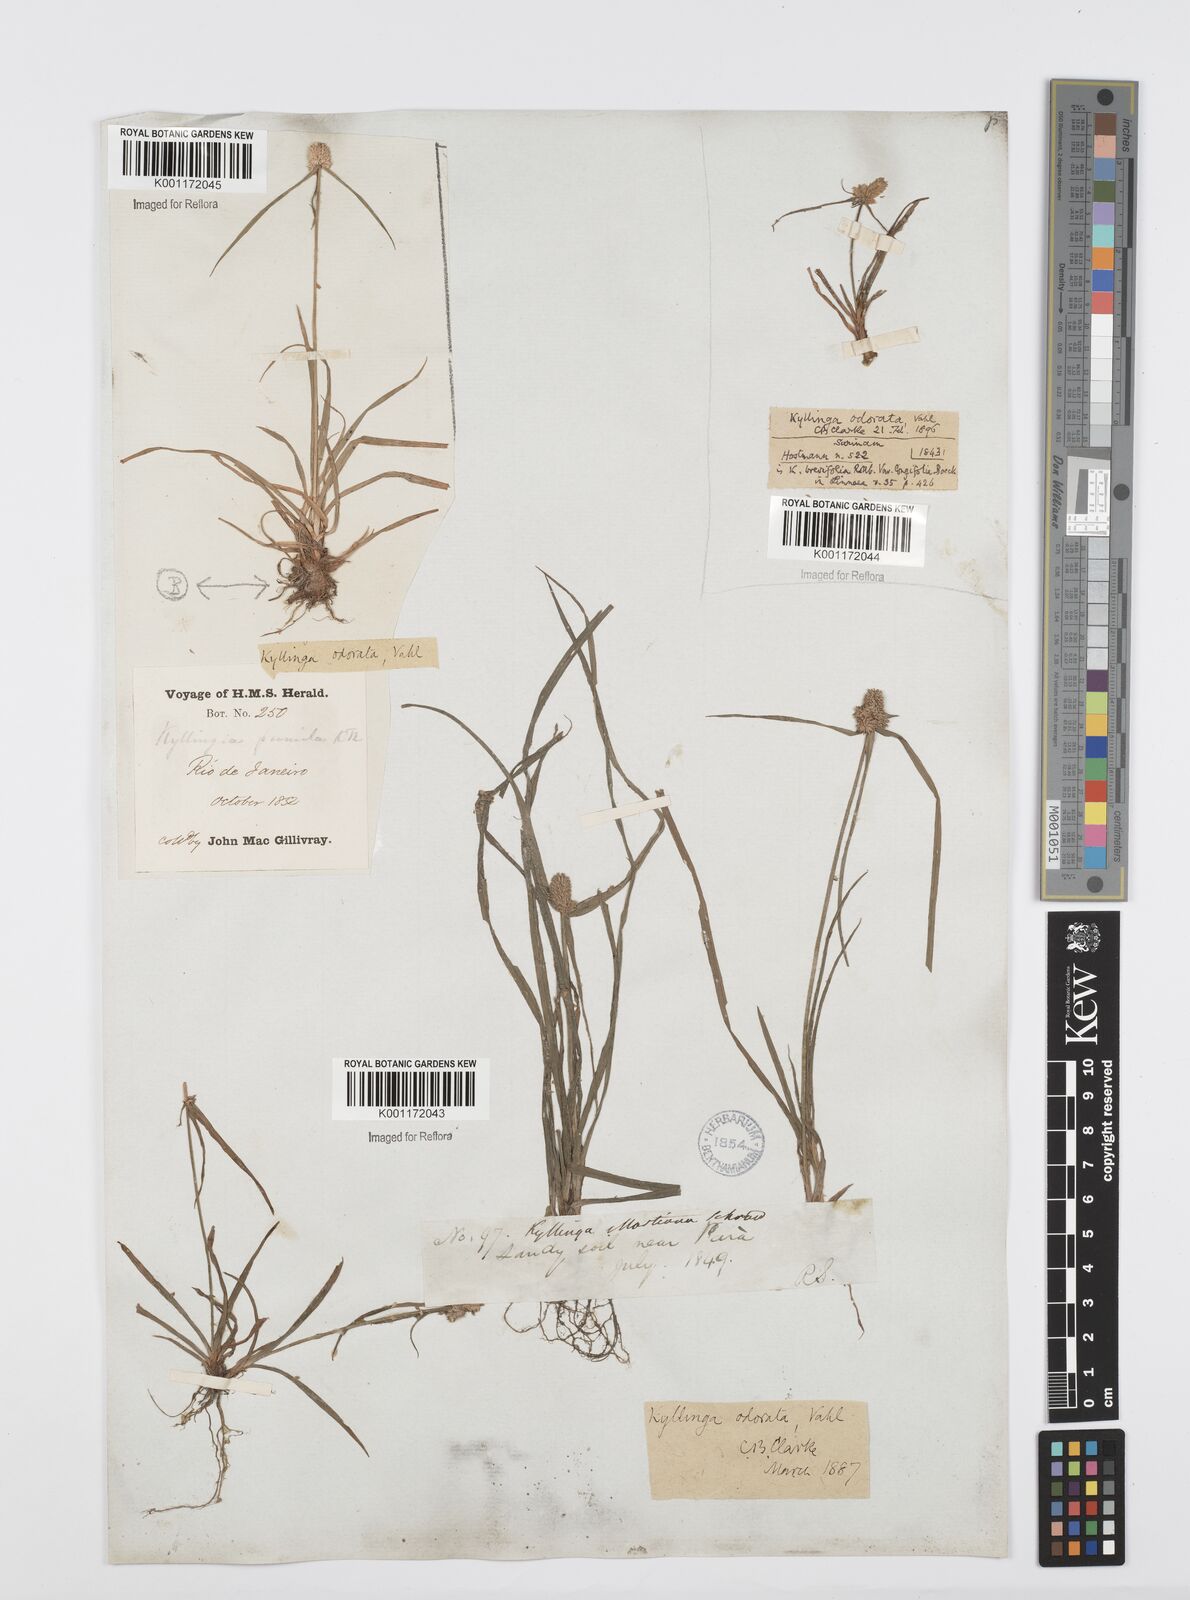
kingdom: Plantae
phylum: Tracheophyta
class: Liliopsida
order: Poales
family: Cyperaceae
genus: Cyperus
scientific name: Cyperus
